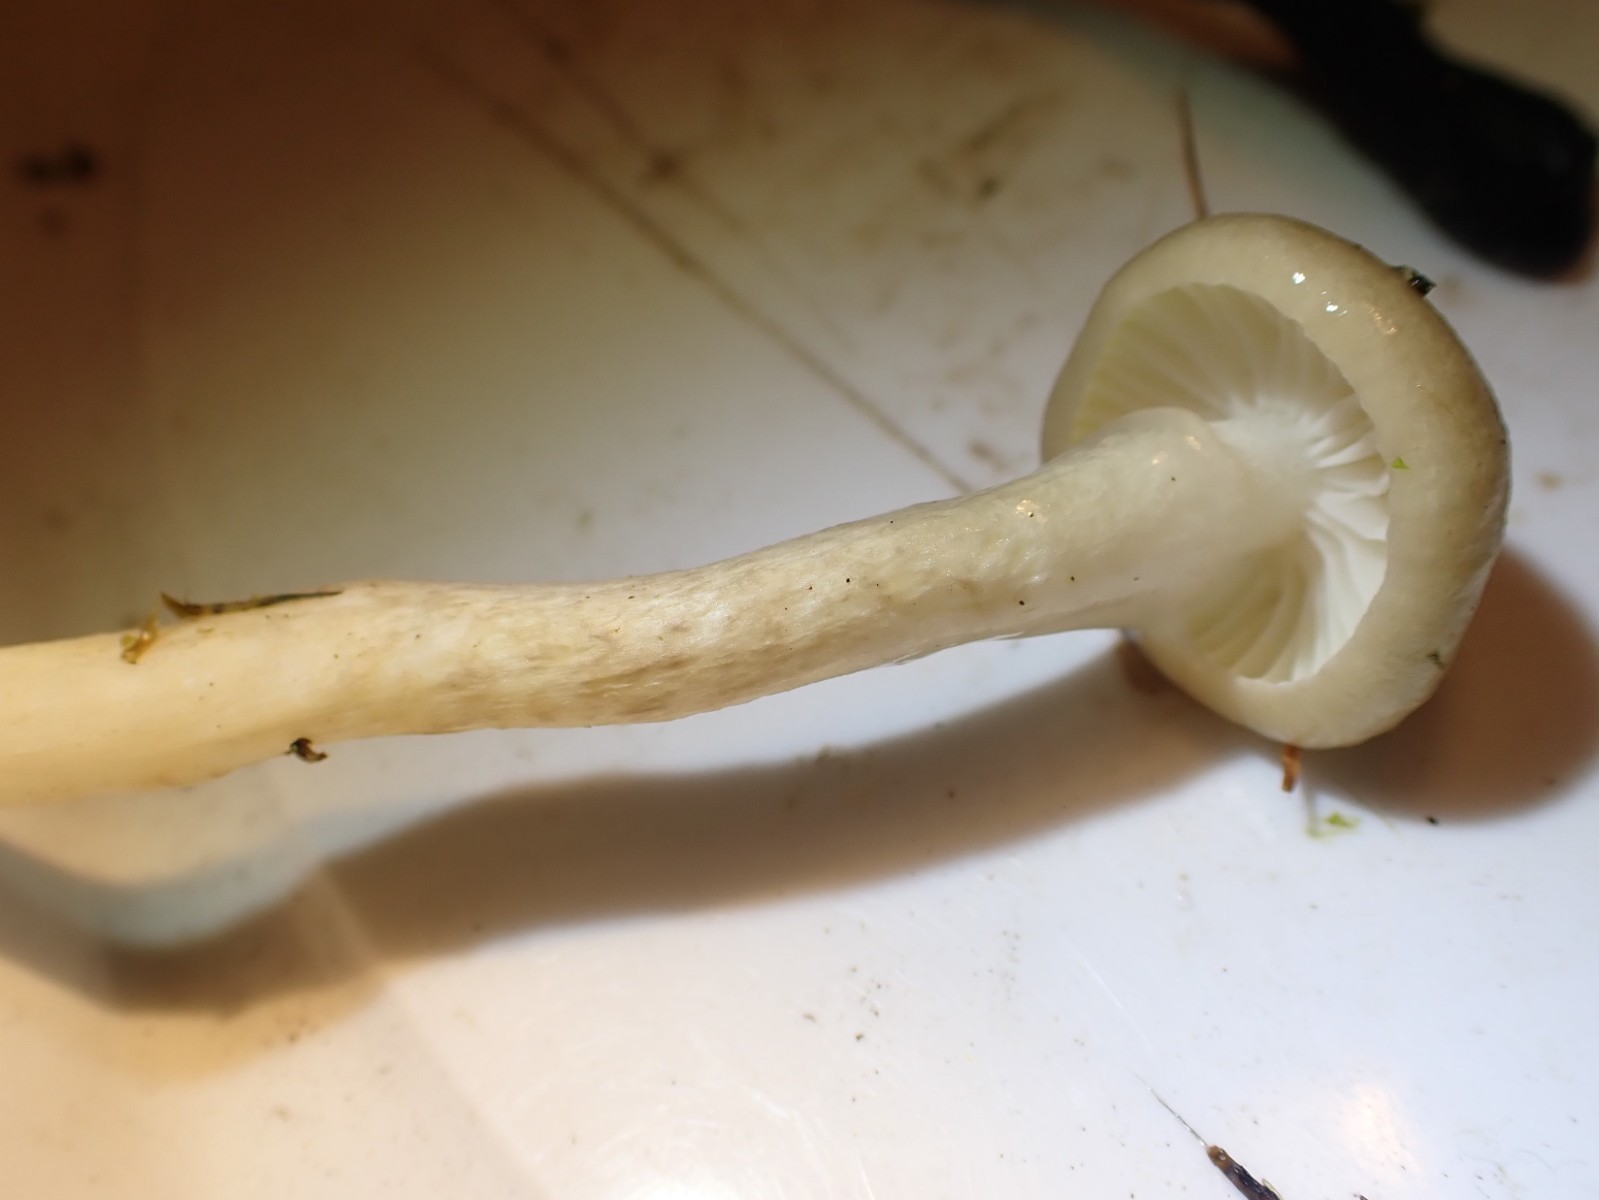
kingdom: Fungi
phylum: Basidiomycota
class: Agaricomycetes
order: Agaricales
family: Hygrophoraceae
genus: Hygrophorus
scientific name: Hygrophorus olivaceoalbus
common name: hvidbrun sneglehat
